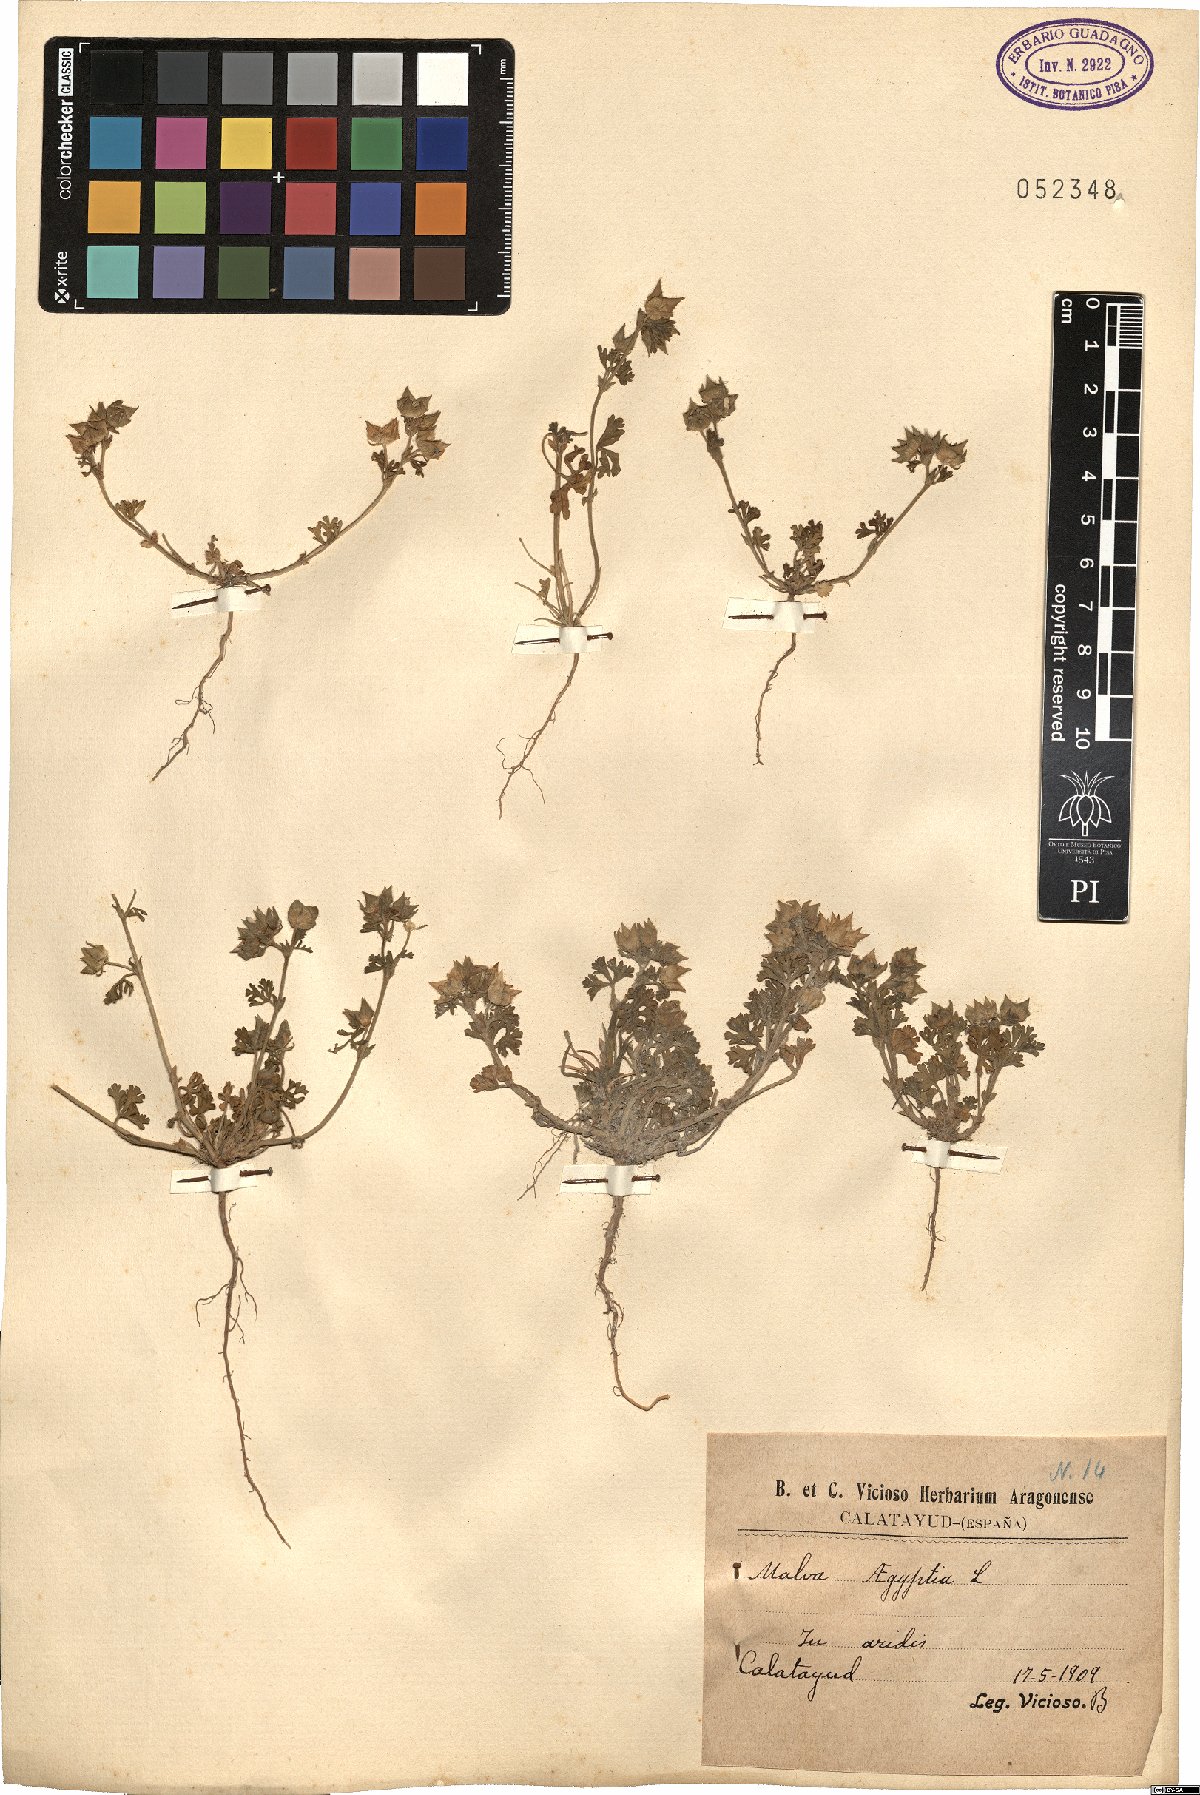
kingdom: Plantae
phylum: Tracheophyta
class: Magnoliopsida
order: Malvales
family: Malvaceae
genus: Malva
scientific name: Malva aegyptia
